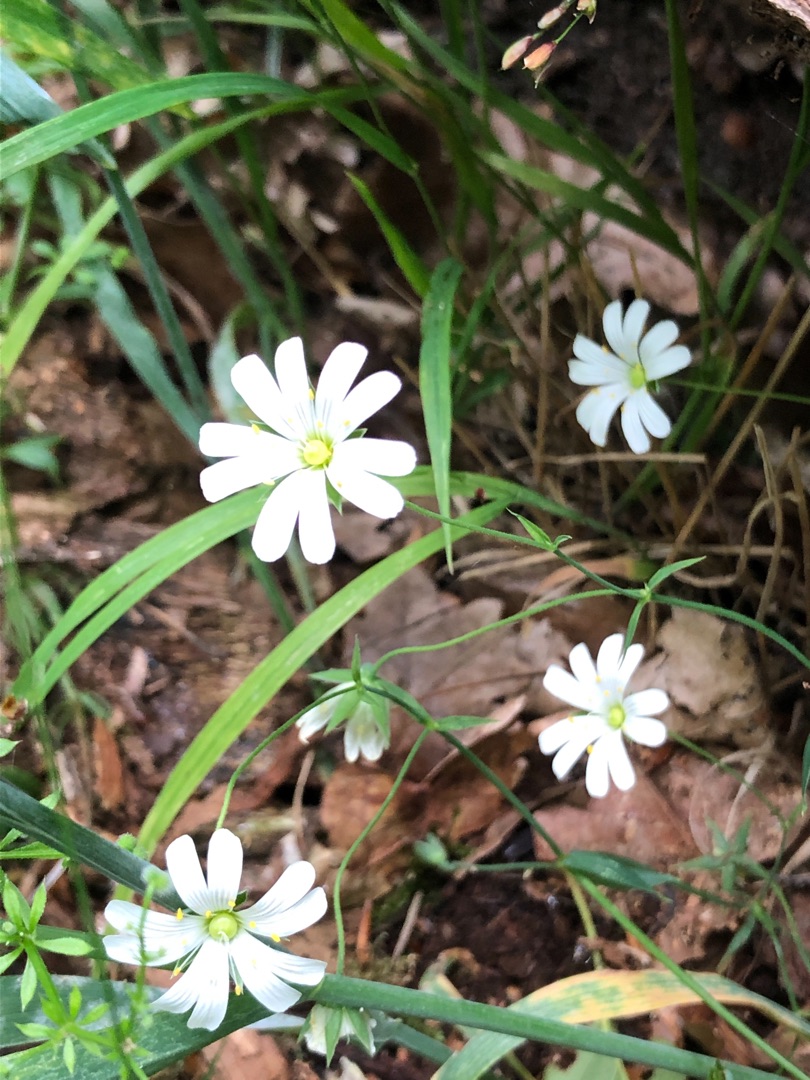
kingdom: Plantae
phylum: Tracheophyta
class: Magnoliopsida
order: Caryophyllales
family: Caryophyllaceae
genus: Rabelera
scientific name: Rabelera holostea
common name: Stor fladstjerne
